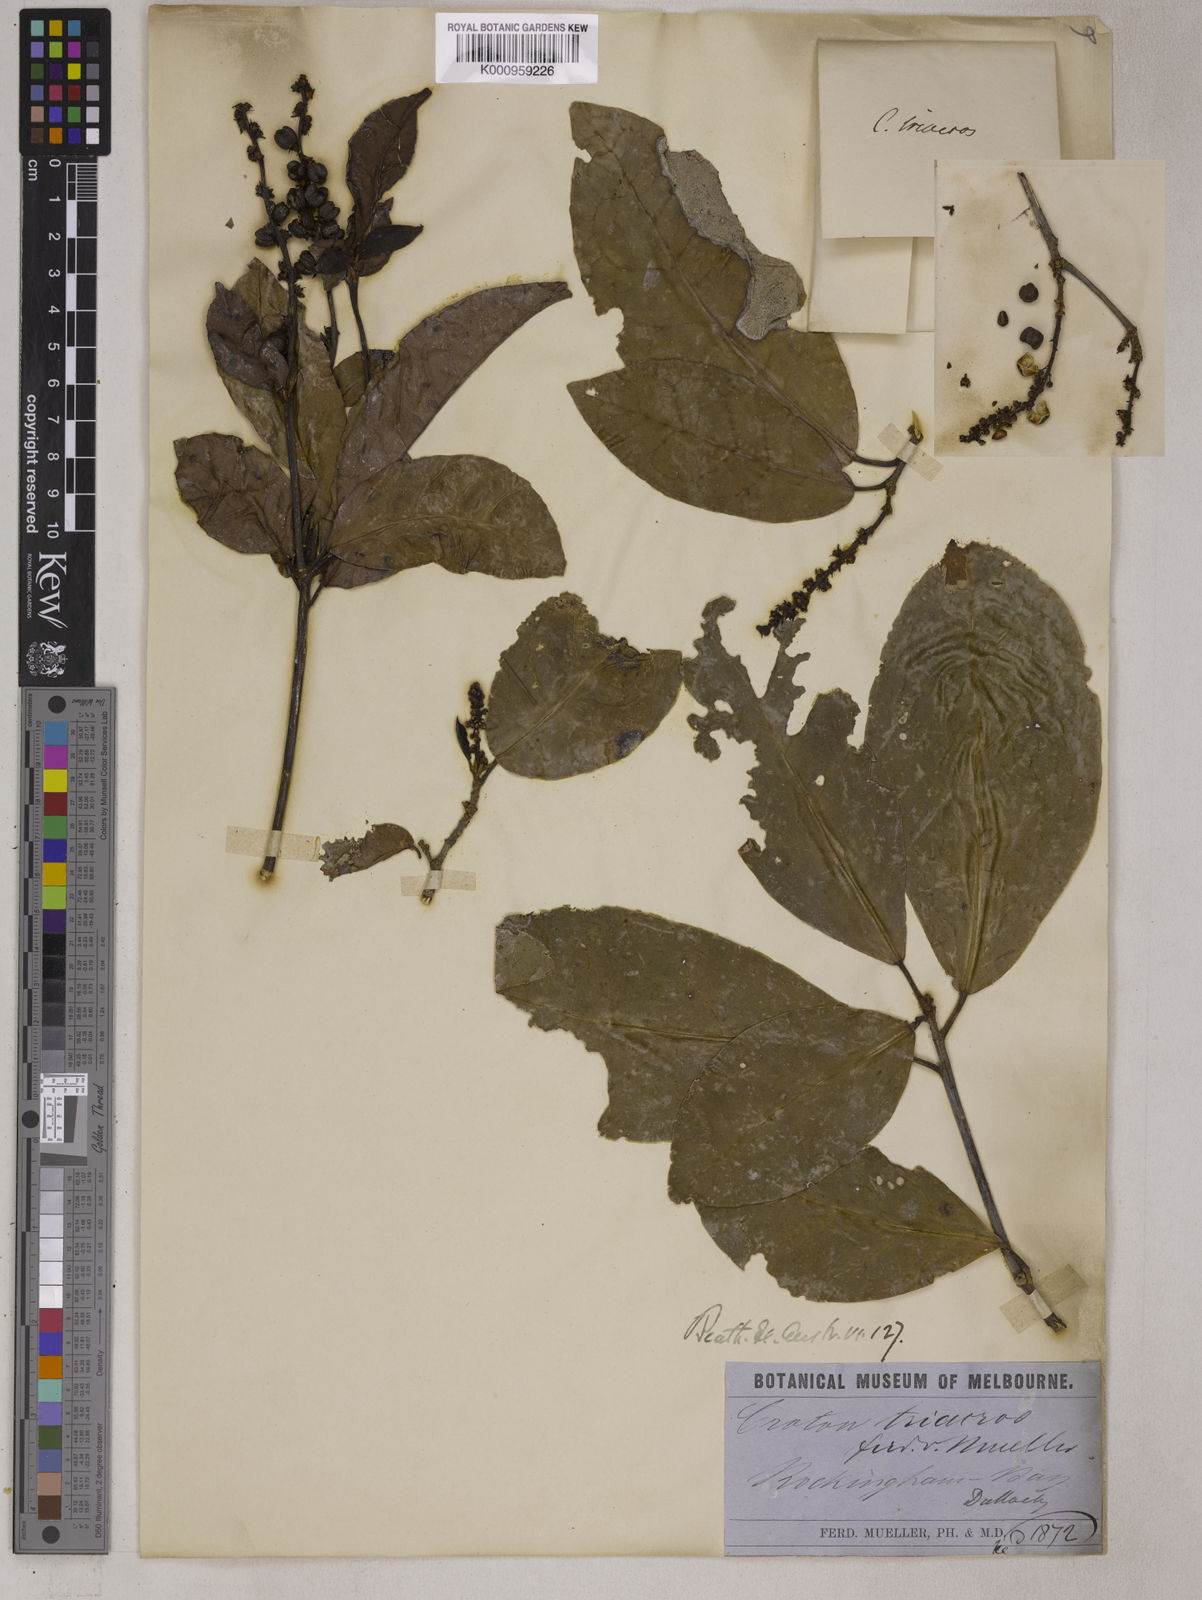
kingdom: Plantae
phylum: Tracheophyta
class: Magnoliopsida
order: Malpighiales
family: Euphorbiaceae
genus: Croton
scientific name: Croton triacros
